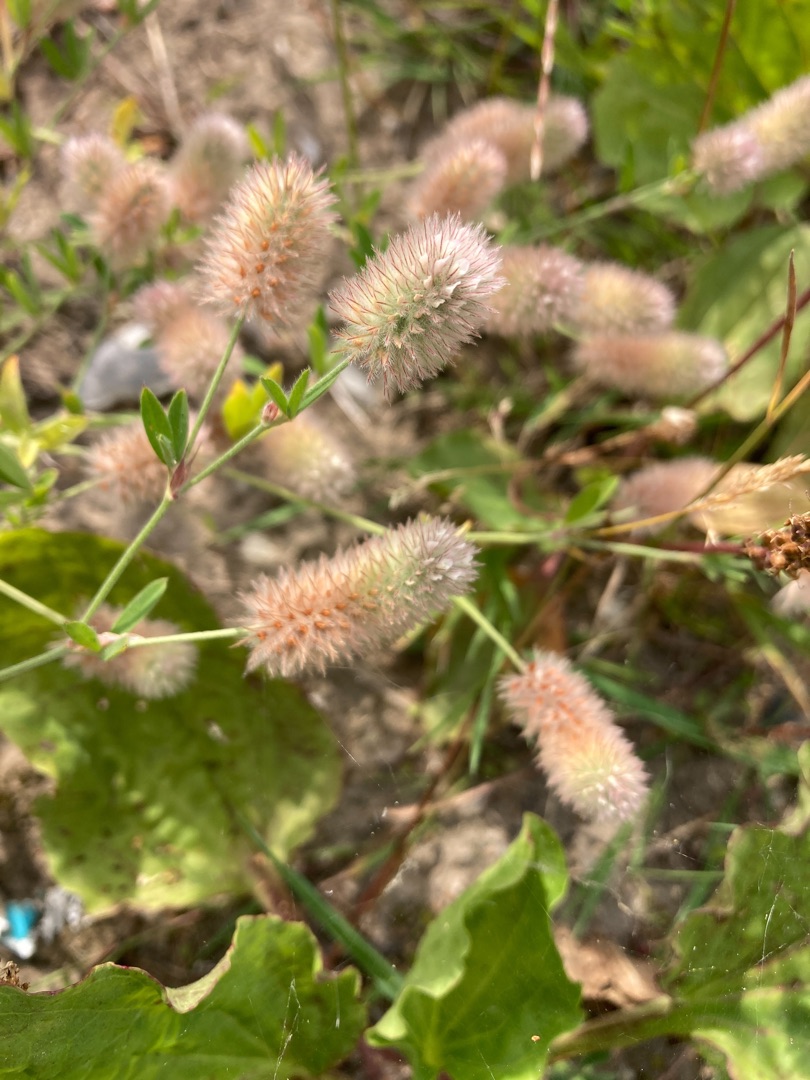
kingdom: Plantae
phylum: Tracheophyta
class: Magnoliopsida
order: Fabales
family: Fabaceae
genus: Trifolium
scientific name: Trifolium arvense
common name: Hare-kløver
